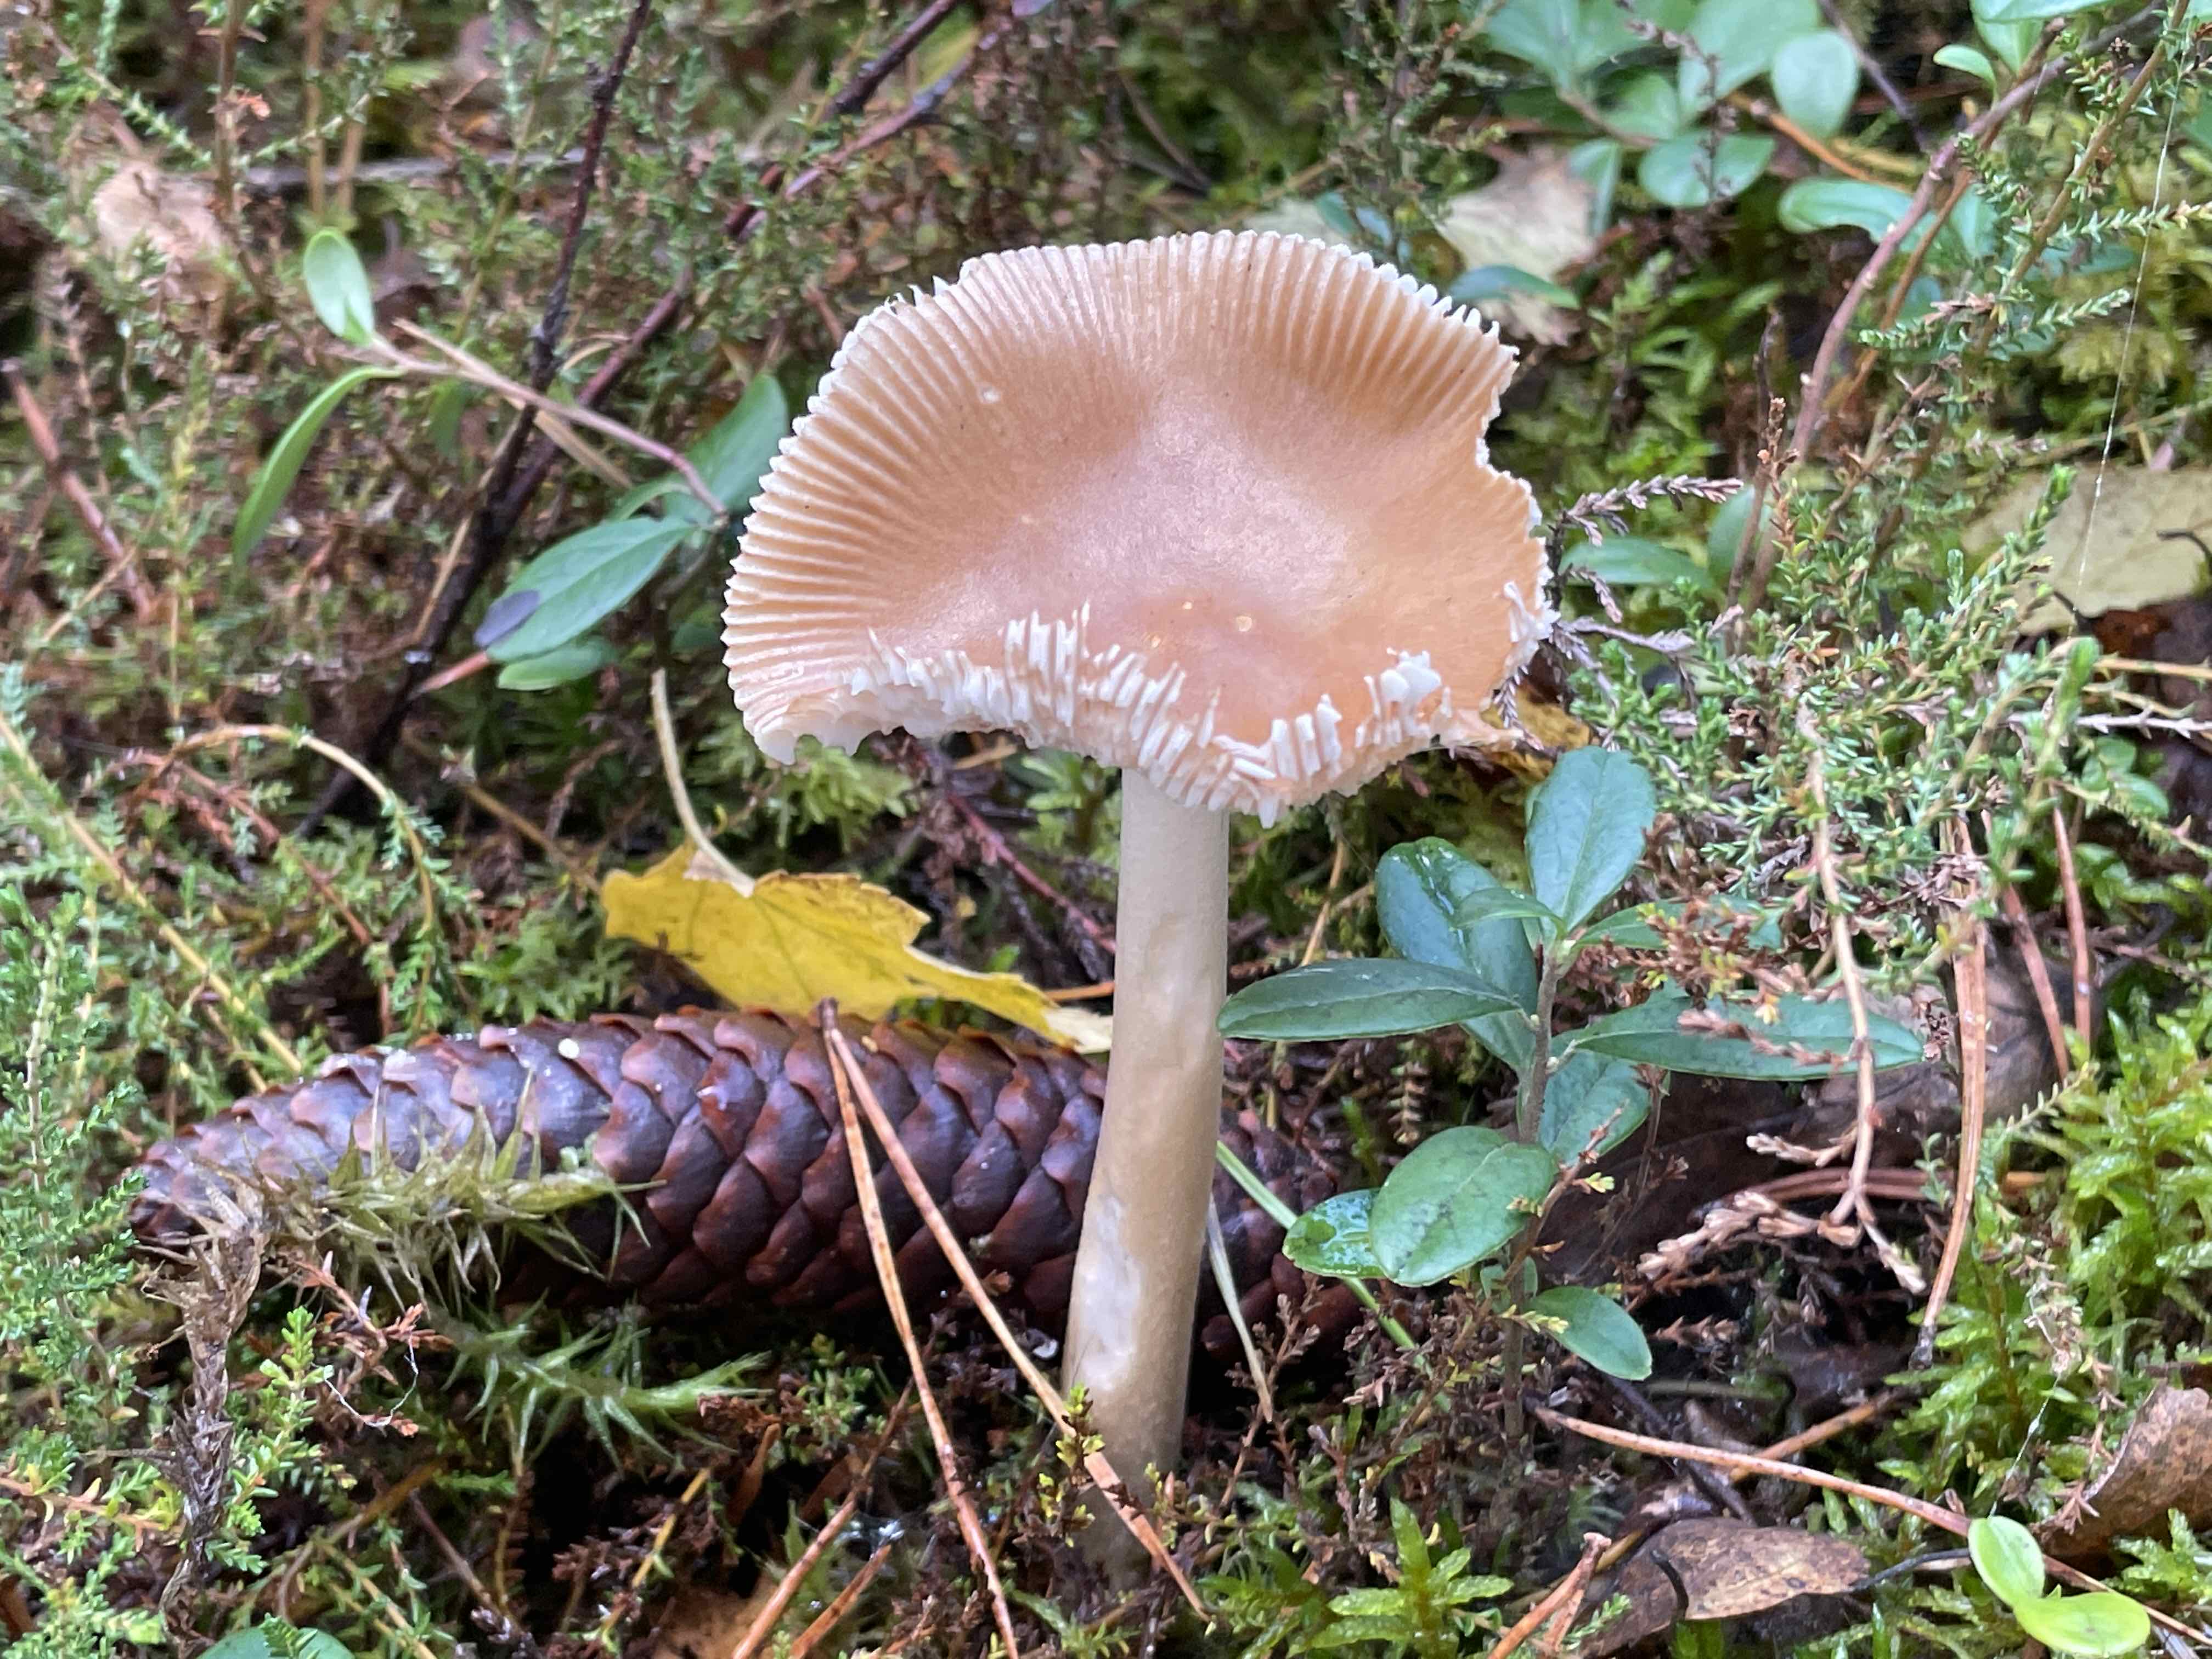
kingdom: Fungi
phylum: Basidiomycota
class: Agaricomycetes
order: Agaricales
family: Amanitaceae
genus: Amanita
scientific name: Amanita fulva
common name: brun kam-fluesvamp
